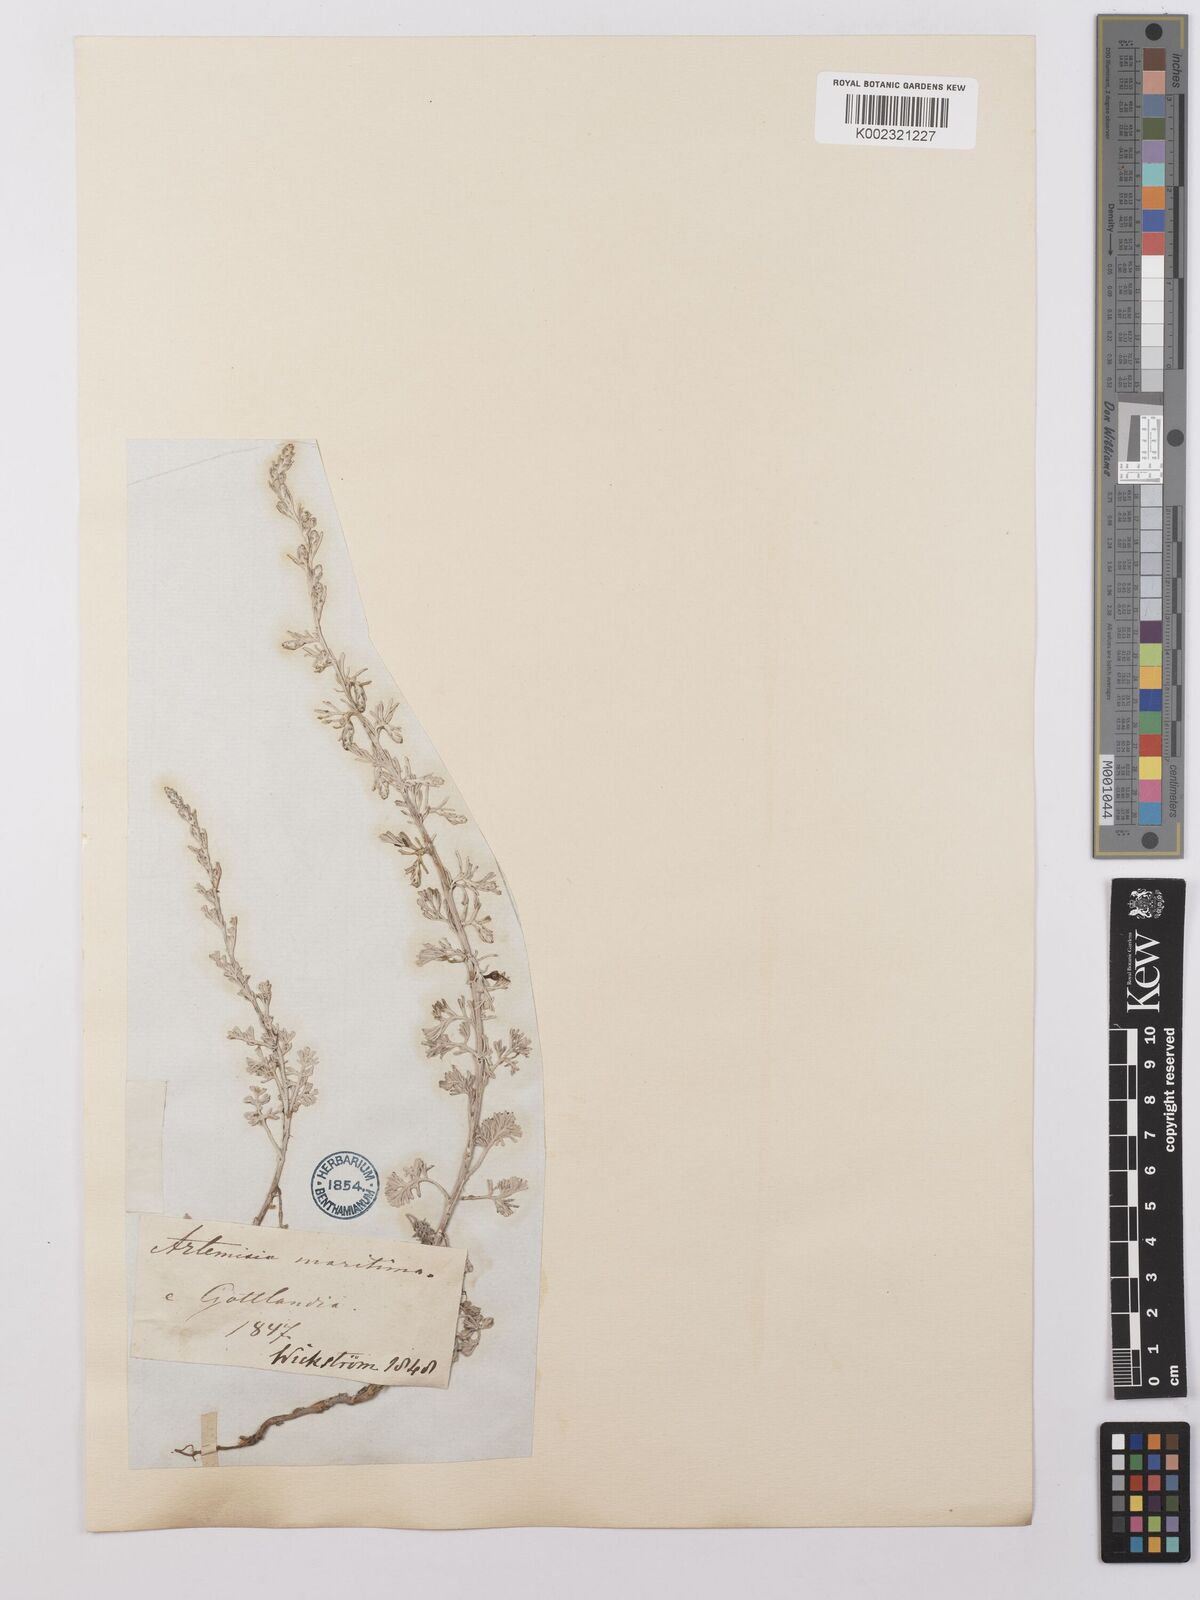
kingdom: Plantae
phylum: Tracheophyta
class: Magnoliopsida
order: Asterales
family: Asteraceae
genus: Artemisia
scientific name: Artemisia maritima
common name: Wormseed
